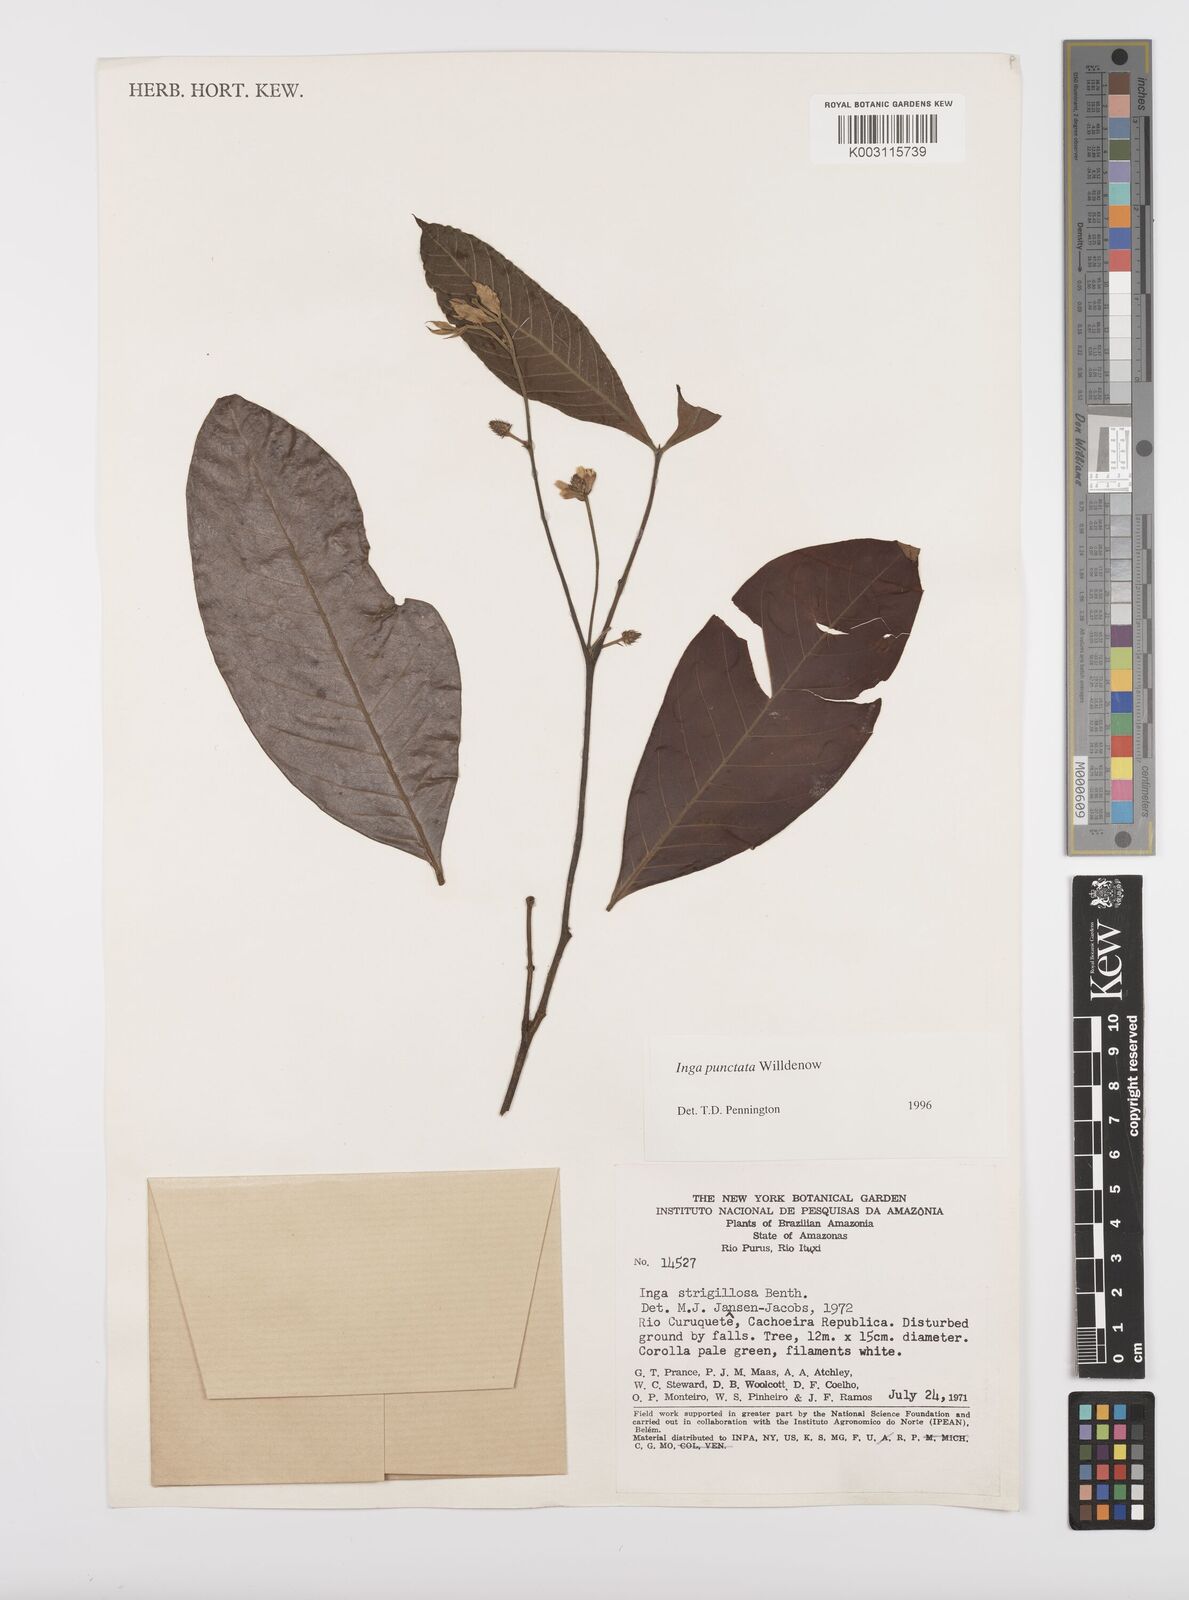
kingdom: Plantae
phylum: Tracheophyta
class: Magnoliopsida
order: Fabales
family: Fabaceae
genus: Inga
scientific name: Inga punctata
